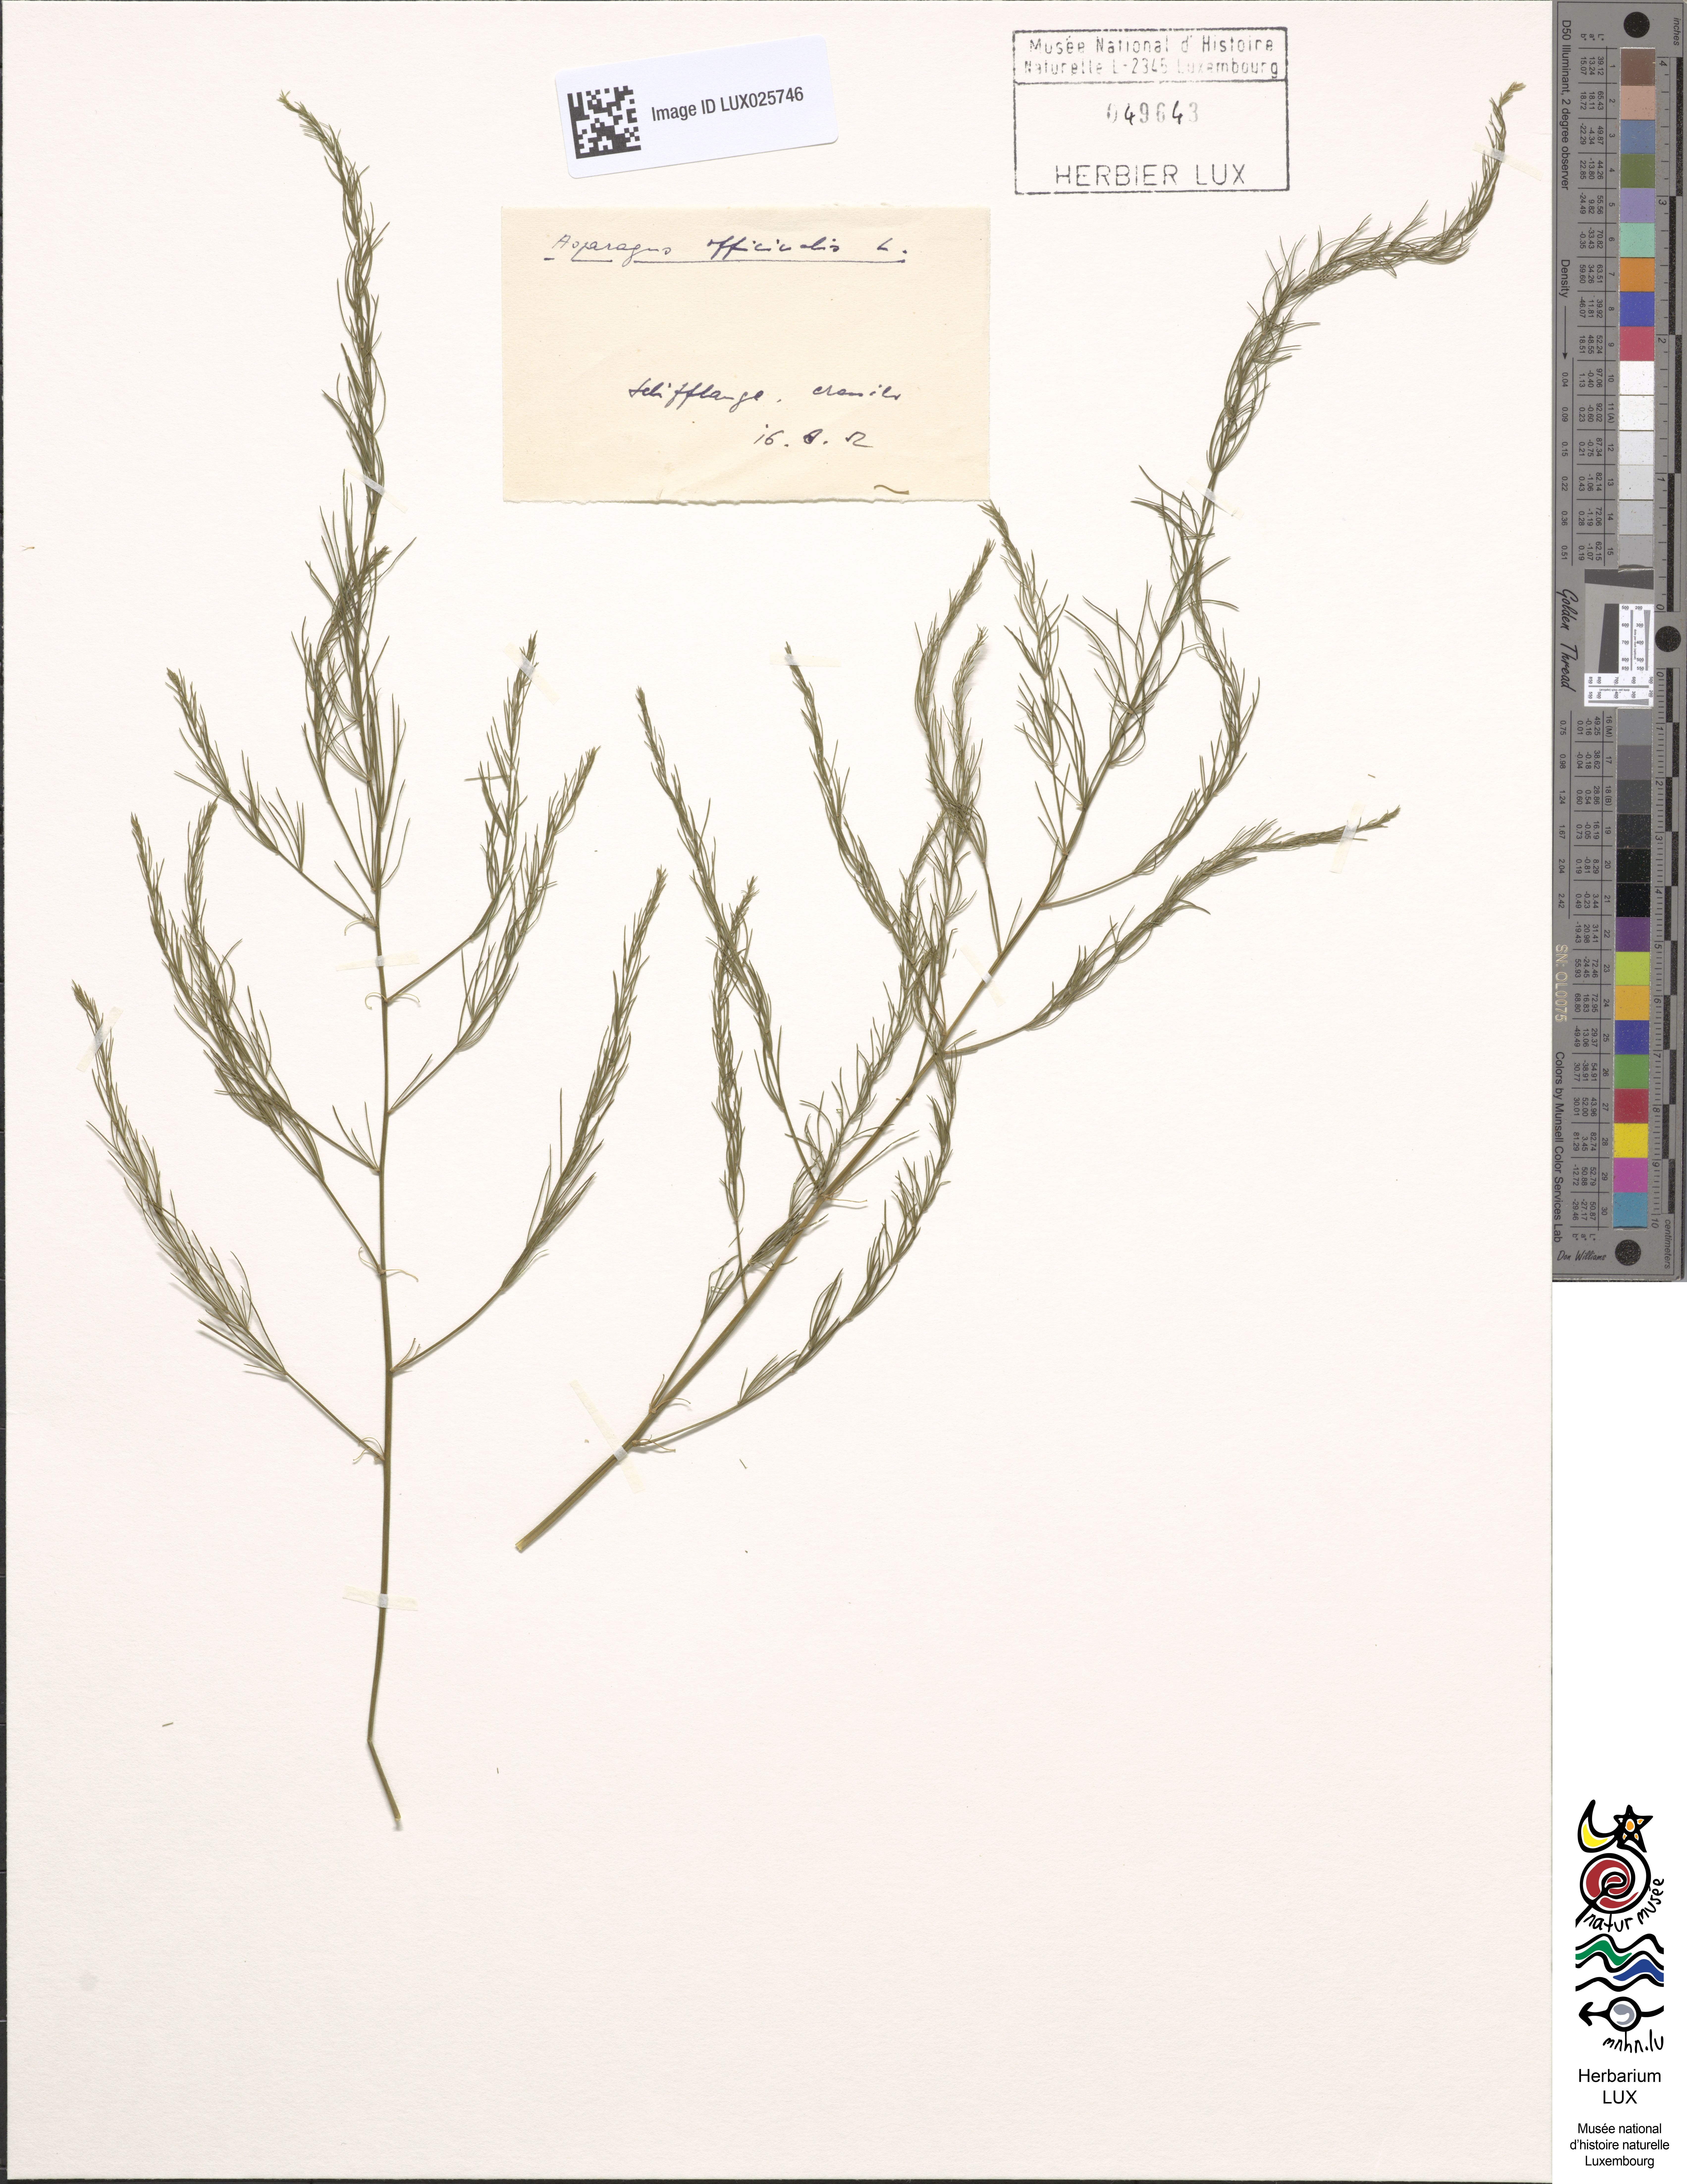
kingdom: Plantae
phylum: Tracheophyta
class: Liliopsida
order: Asparagales
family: Asparagaceae
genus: Asparagus
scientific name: Asparagus officinalis
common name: Garden asparagus
